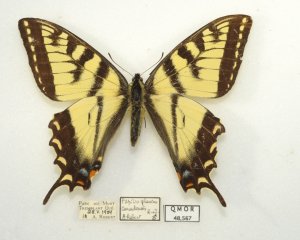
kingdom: Animalia
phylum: Arthropoda
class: Insecta
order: Lepidoptera
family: Papilionidae
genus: Pterourus
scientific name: Pterourus canadensis
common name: Canadian Tiger Swallowtail
